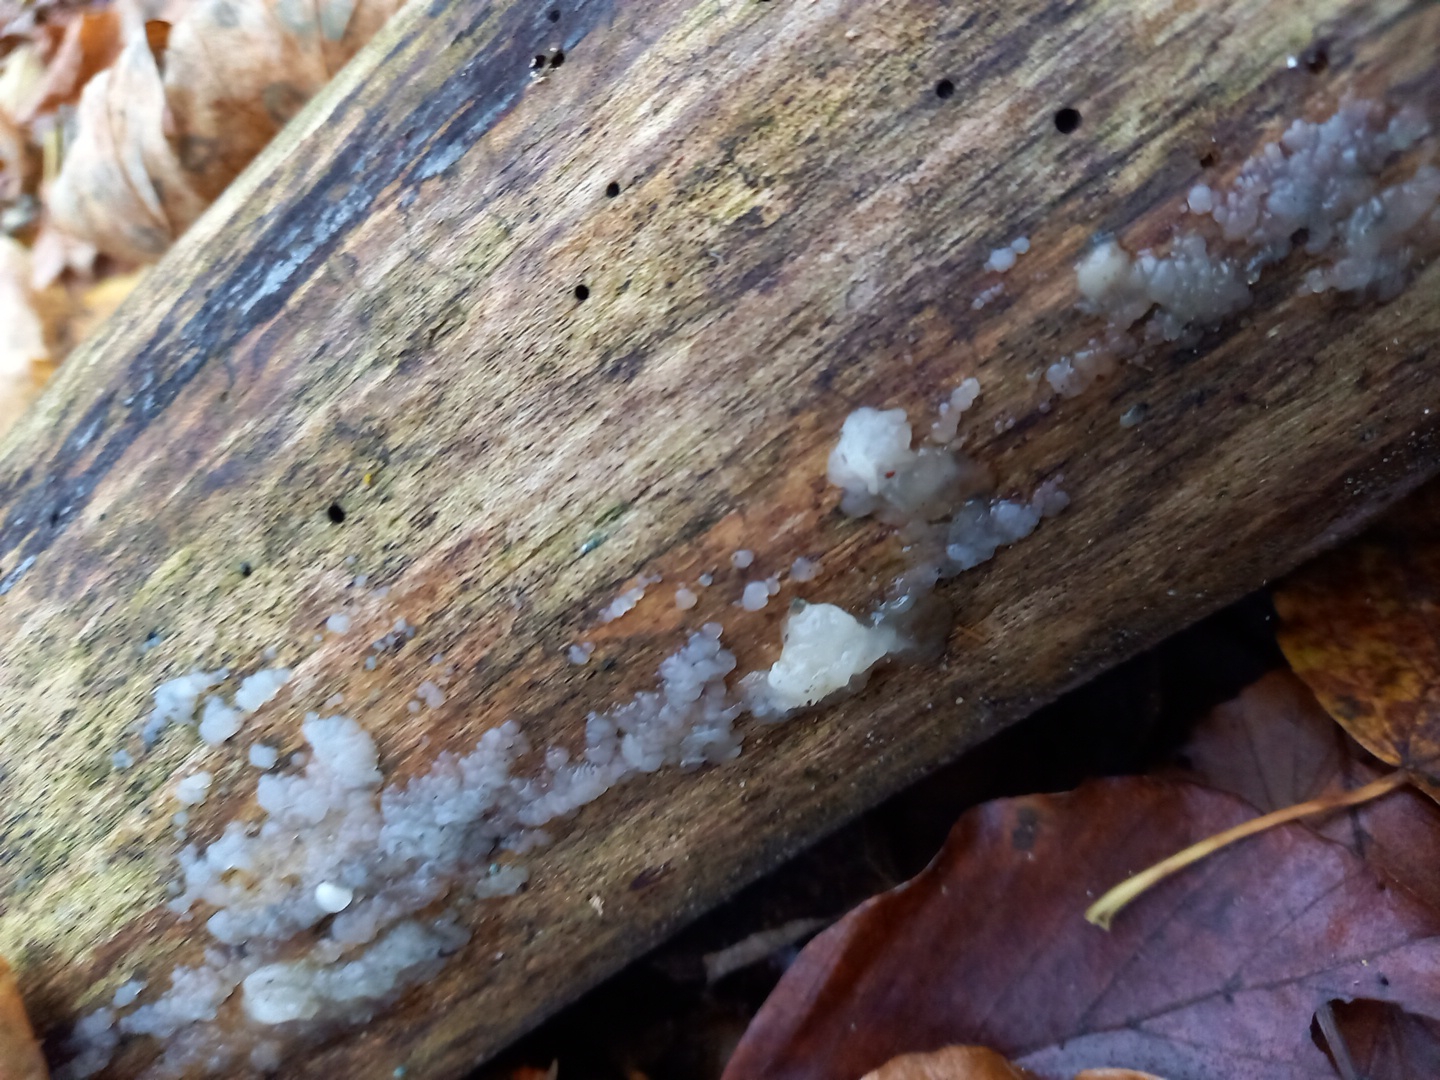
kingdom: Fungi
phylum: Basidiomycota
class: Agaricomycetes
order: Auriculariales
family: Hyaloriaceae
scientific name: Hyaloriaceae
